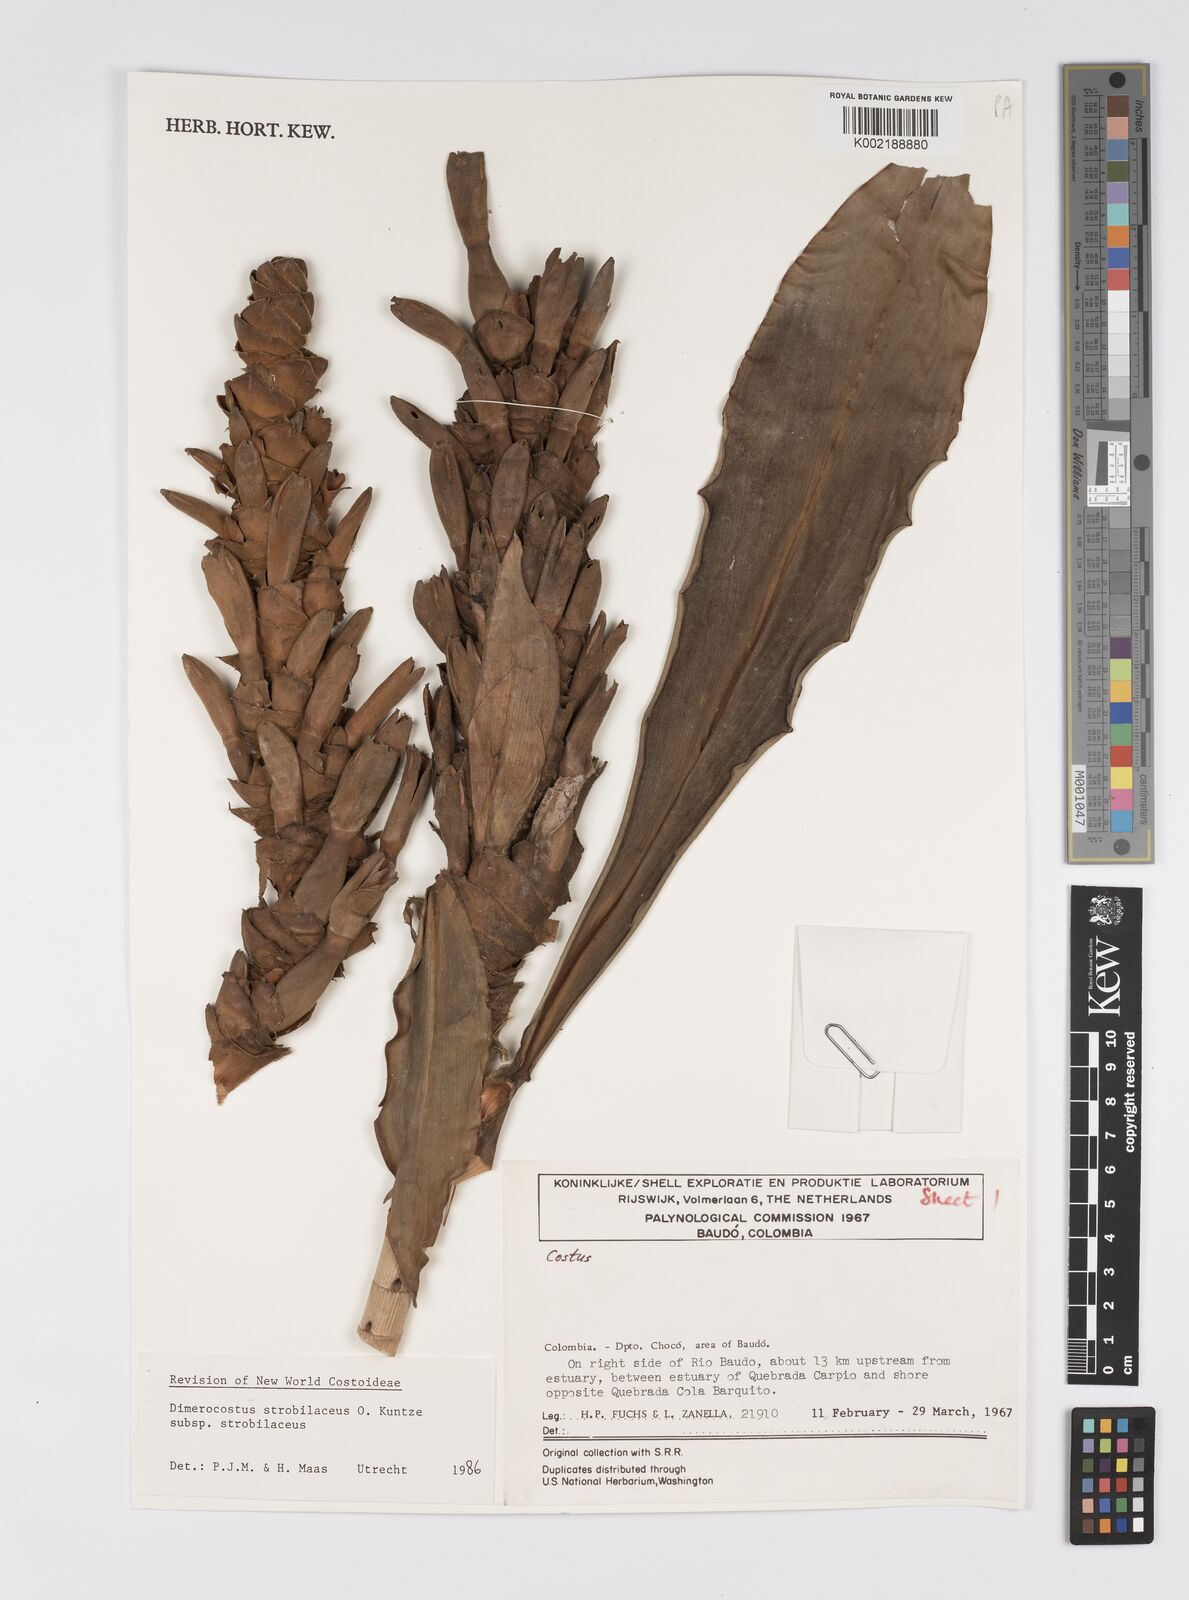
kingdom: Plantae
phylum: Tracheophyta
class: Liliopsida
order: Zingiberales
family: Costaceae
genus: Dimerocostus
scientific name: Dimerocostus strobilaceus
